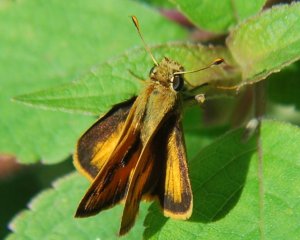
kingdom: Animalia
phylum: Arthropoda
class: Insecta
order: Lepidoptera
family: Hesperiidae
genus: Polites
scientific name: Polites vibex
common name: Whirlabout
